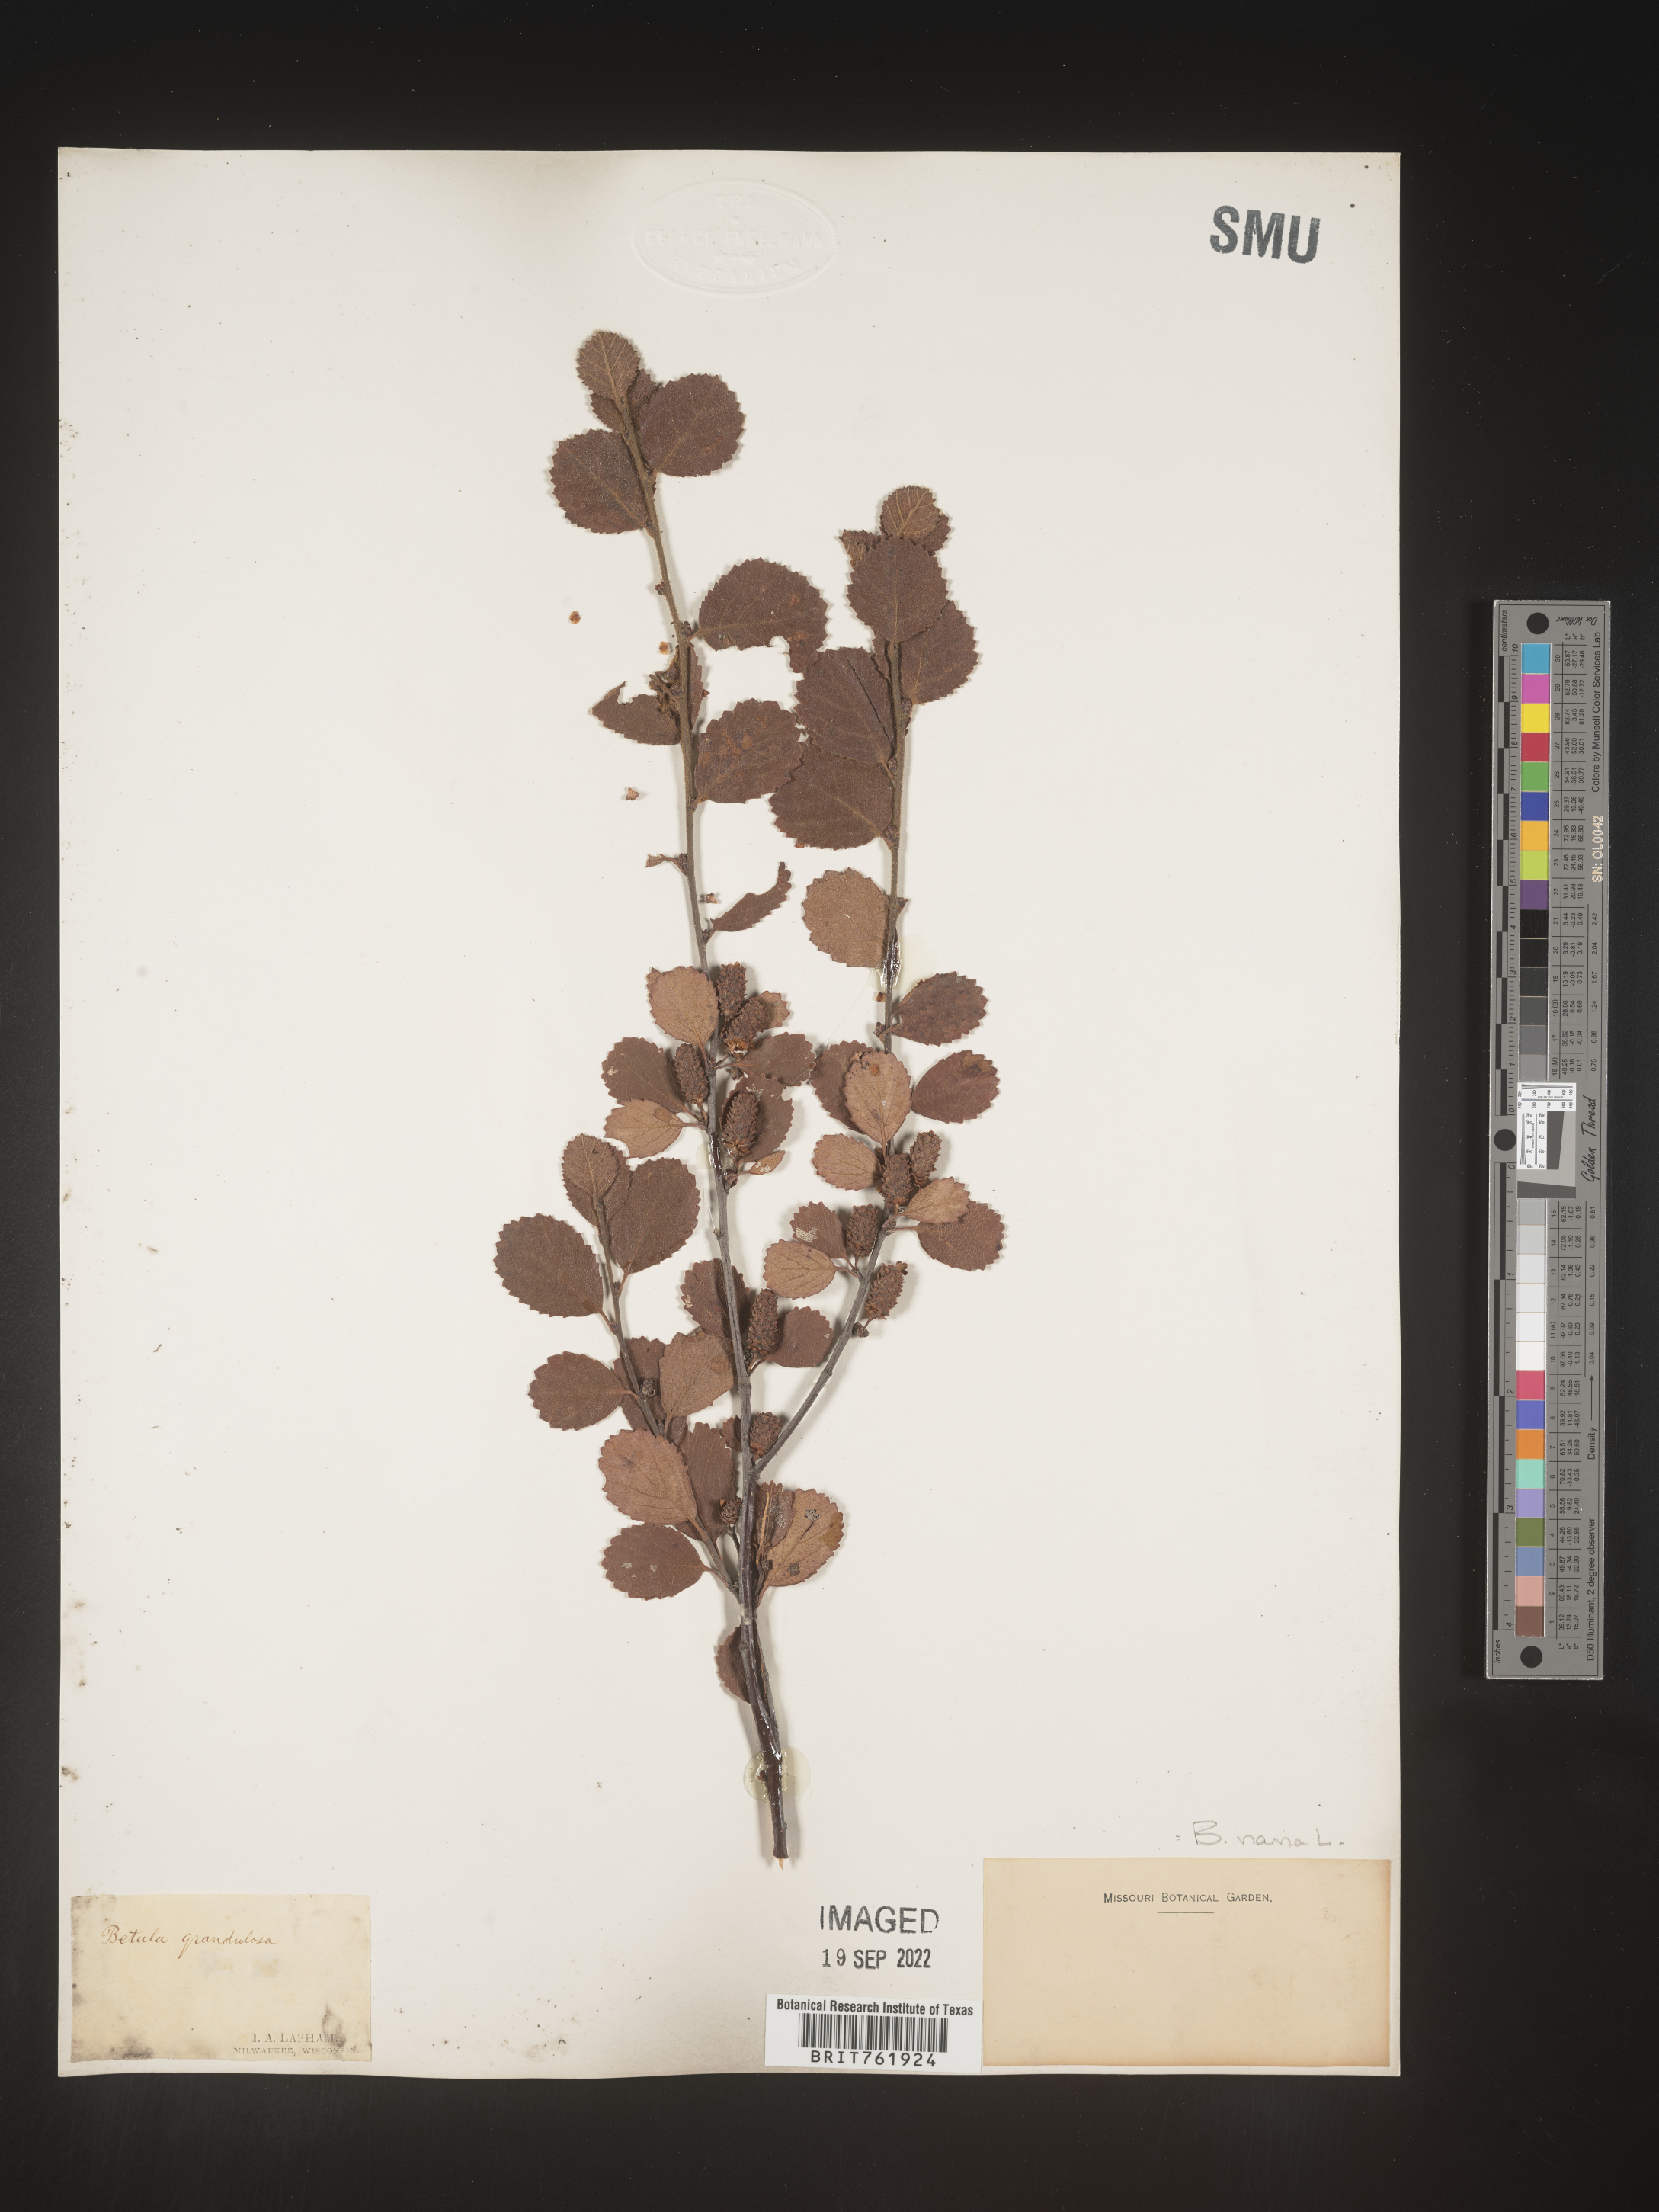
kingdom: Plantae
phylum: Tracheophyta
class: Magnoliopsida
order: Fagales
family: Betulaceae
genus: Betula
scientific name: Betula nana
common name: Arctic dwarf birch
